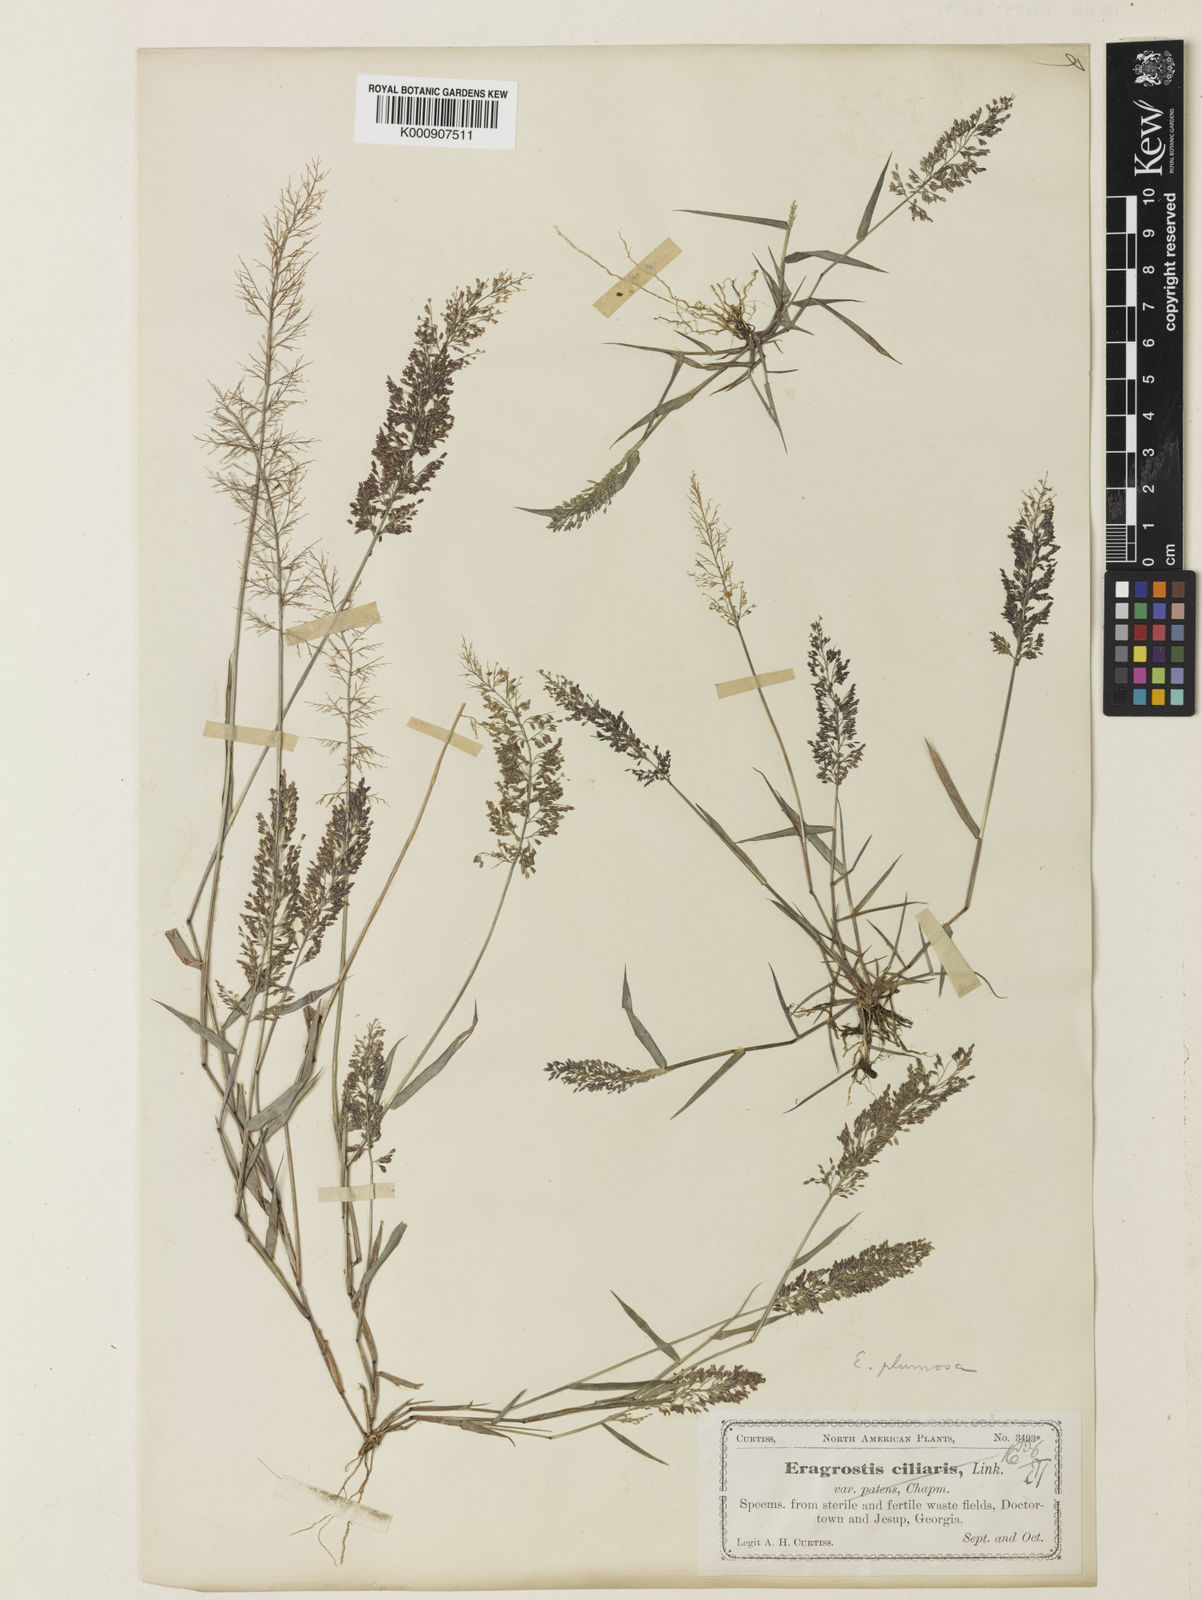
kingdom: Plantae
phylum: Tracheophyta
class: Liliopsida
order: Poales
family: Poaceae
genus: Eragrostis
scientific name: Eragrostis tenella
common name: Japanese lovegrass
